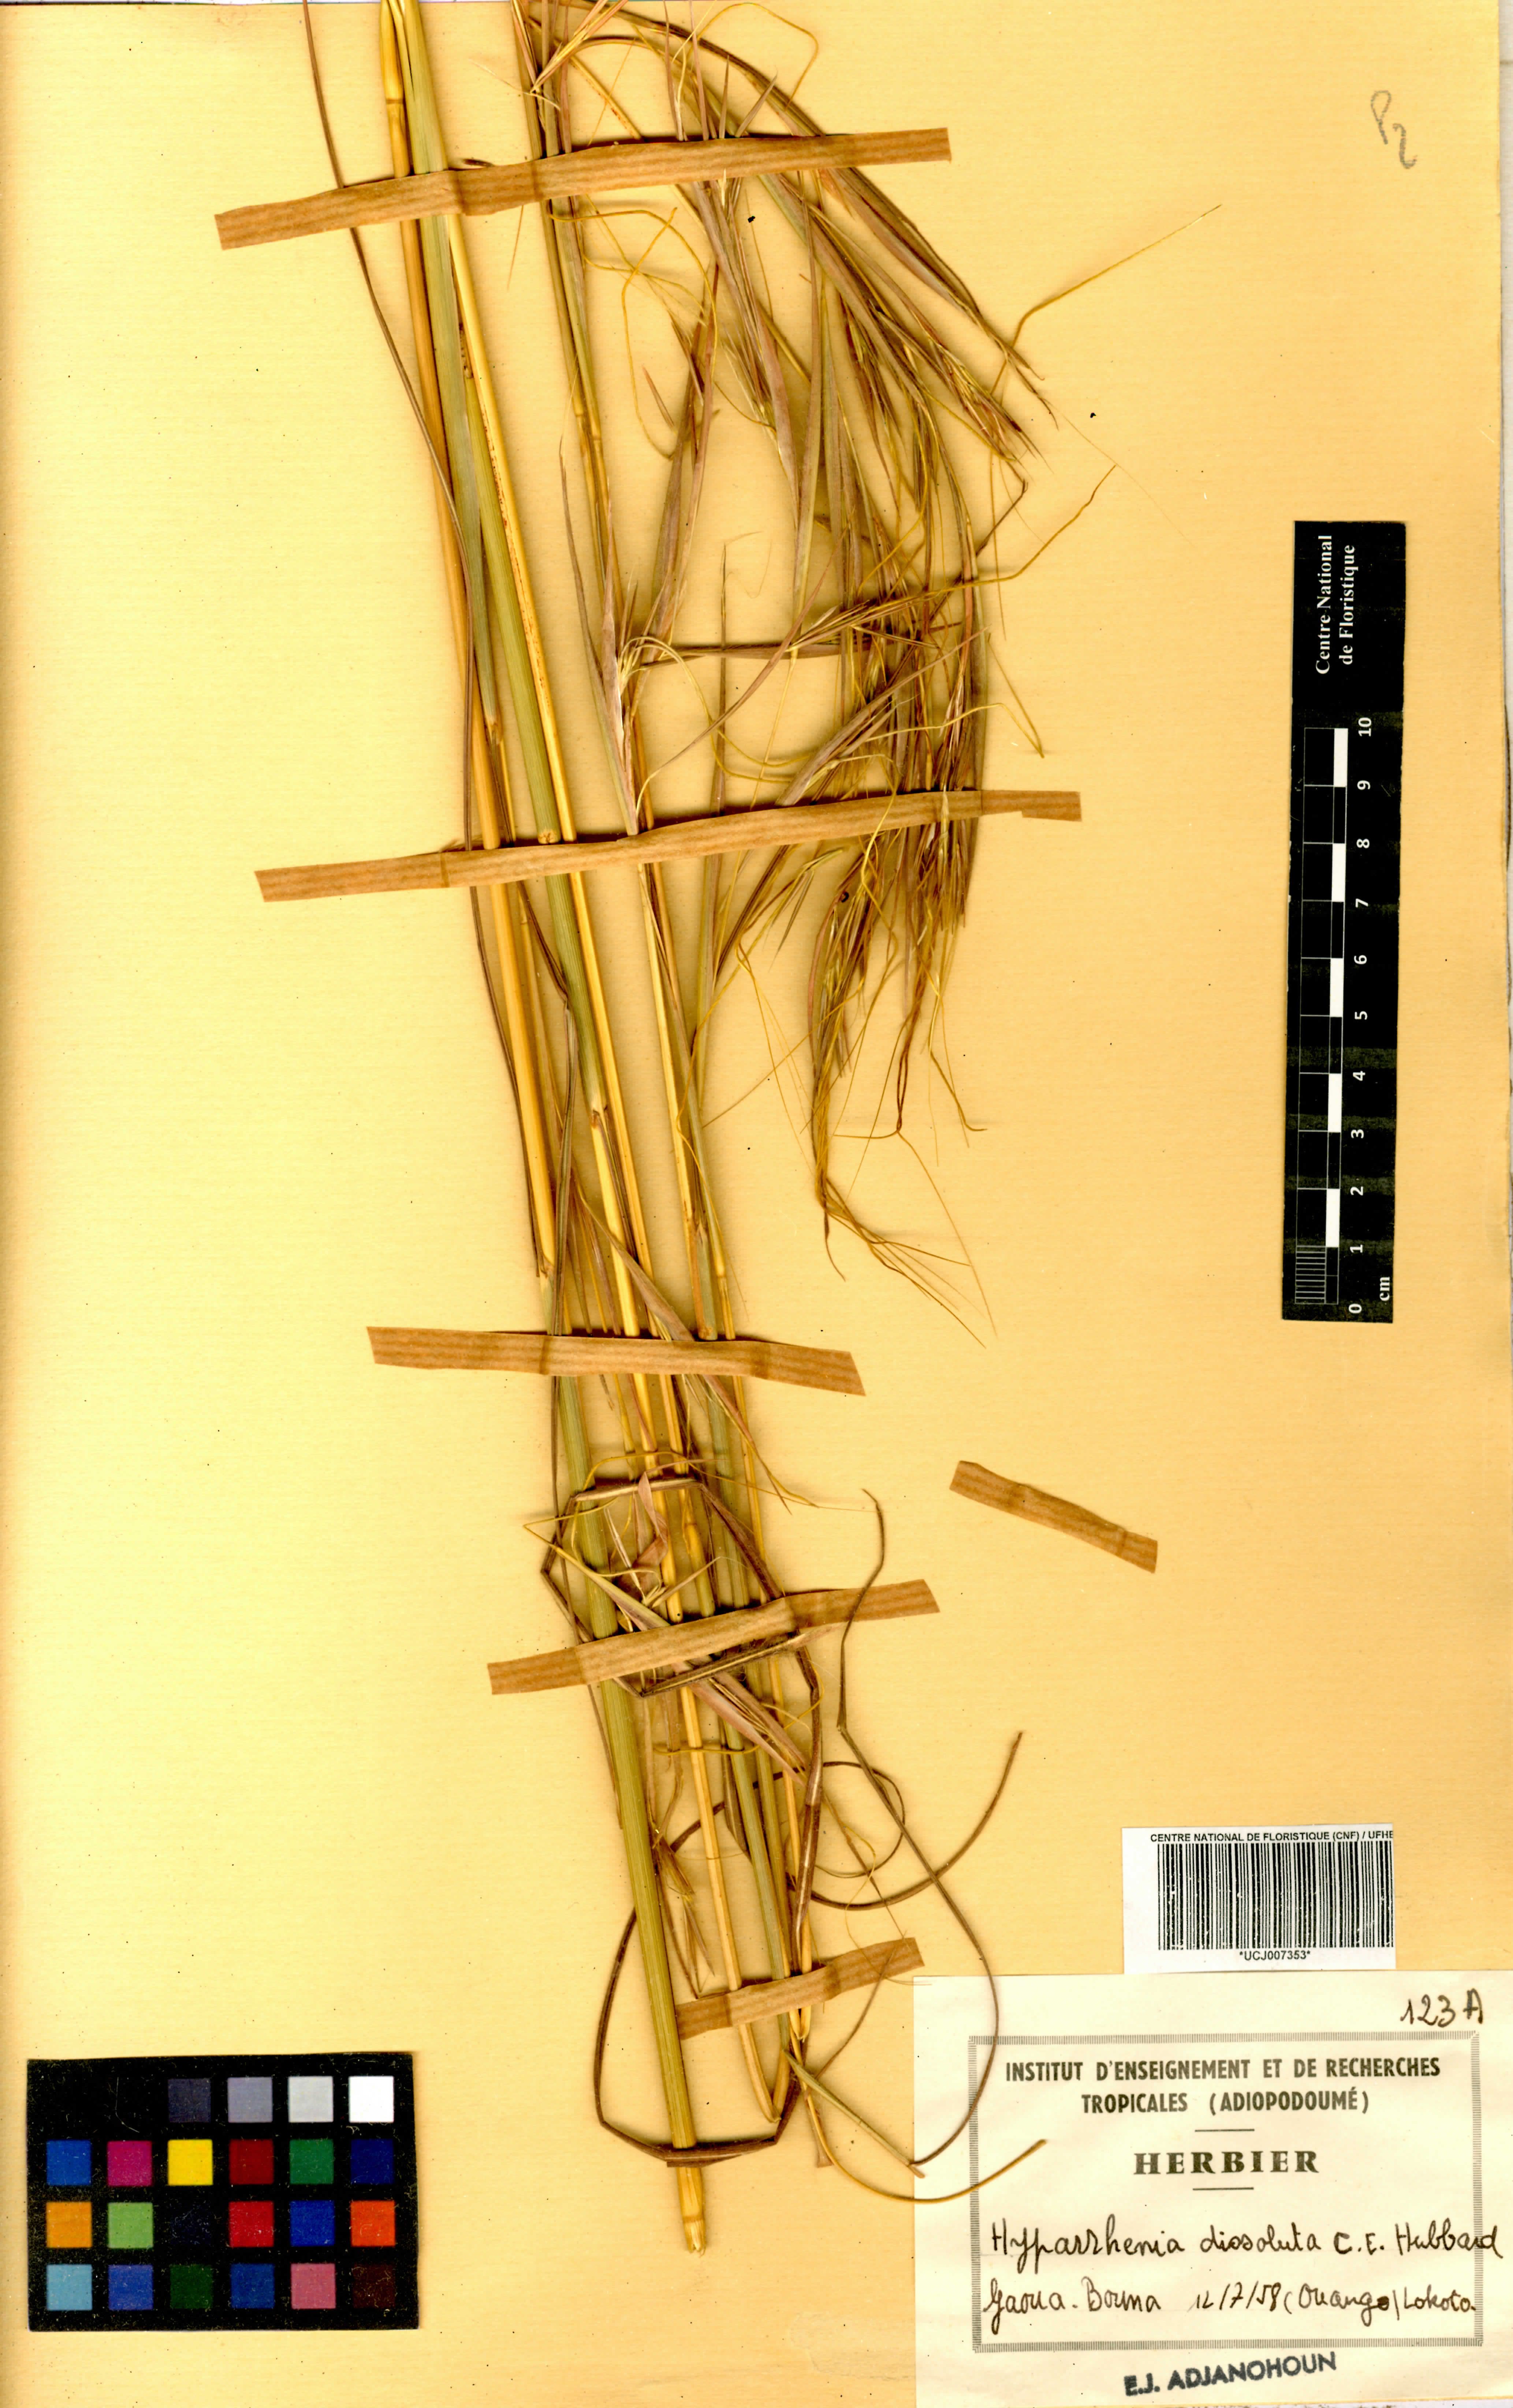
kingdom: Plantae
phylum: Tracheophyta
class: Liliopsida
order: Poales
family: Poaceae
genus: Hyparrhenia
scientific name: Hyparrhenia familiaris
